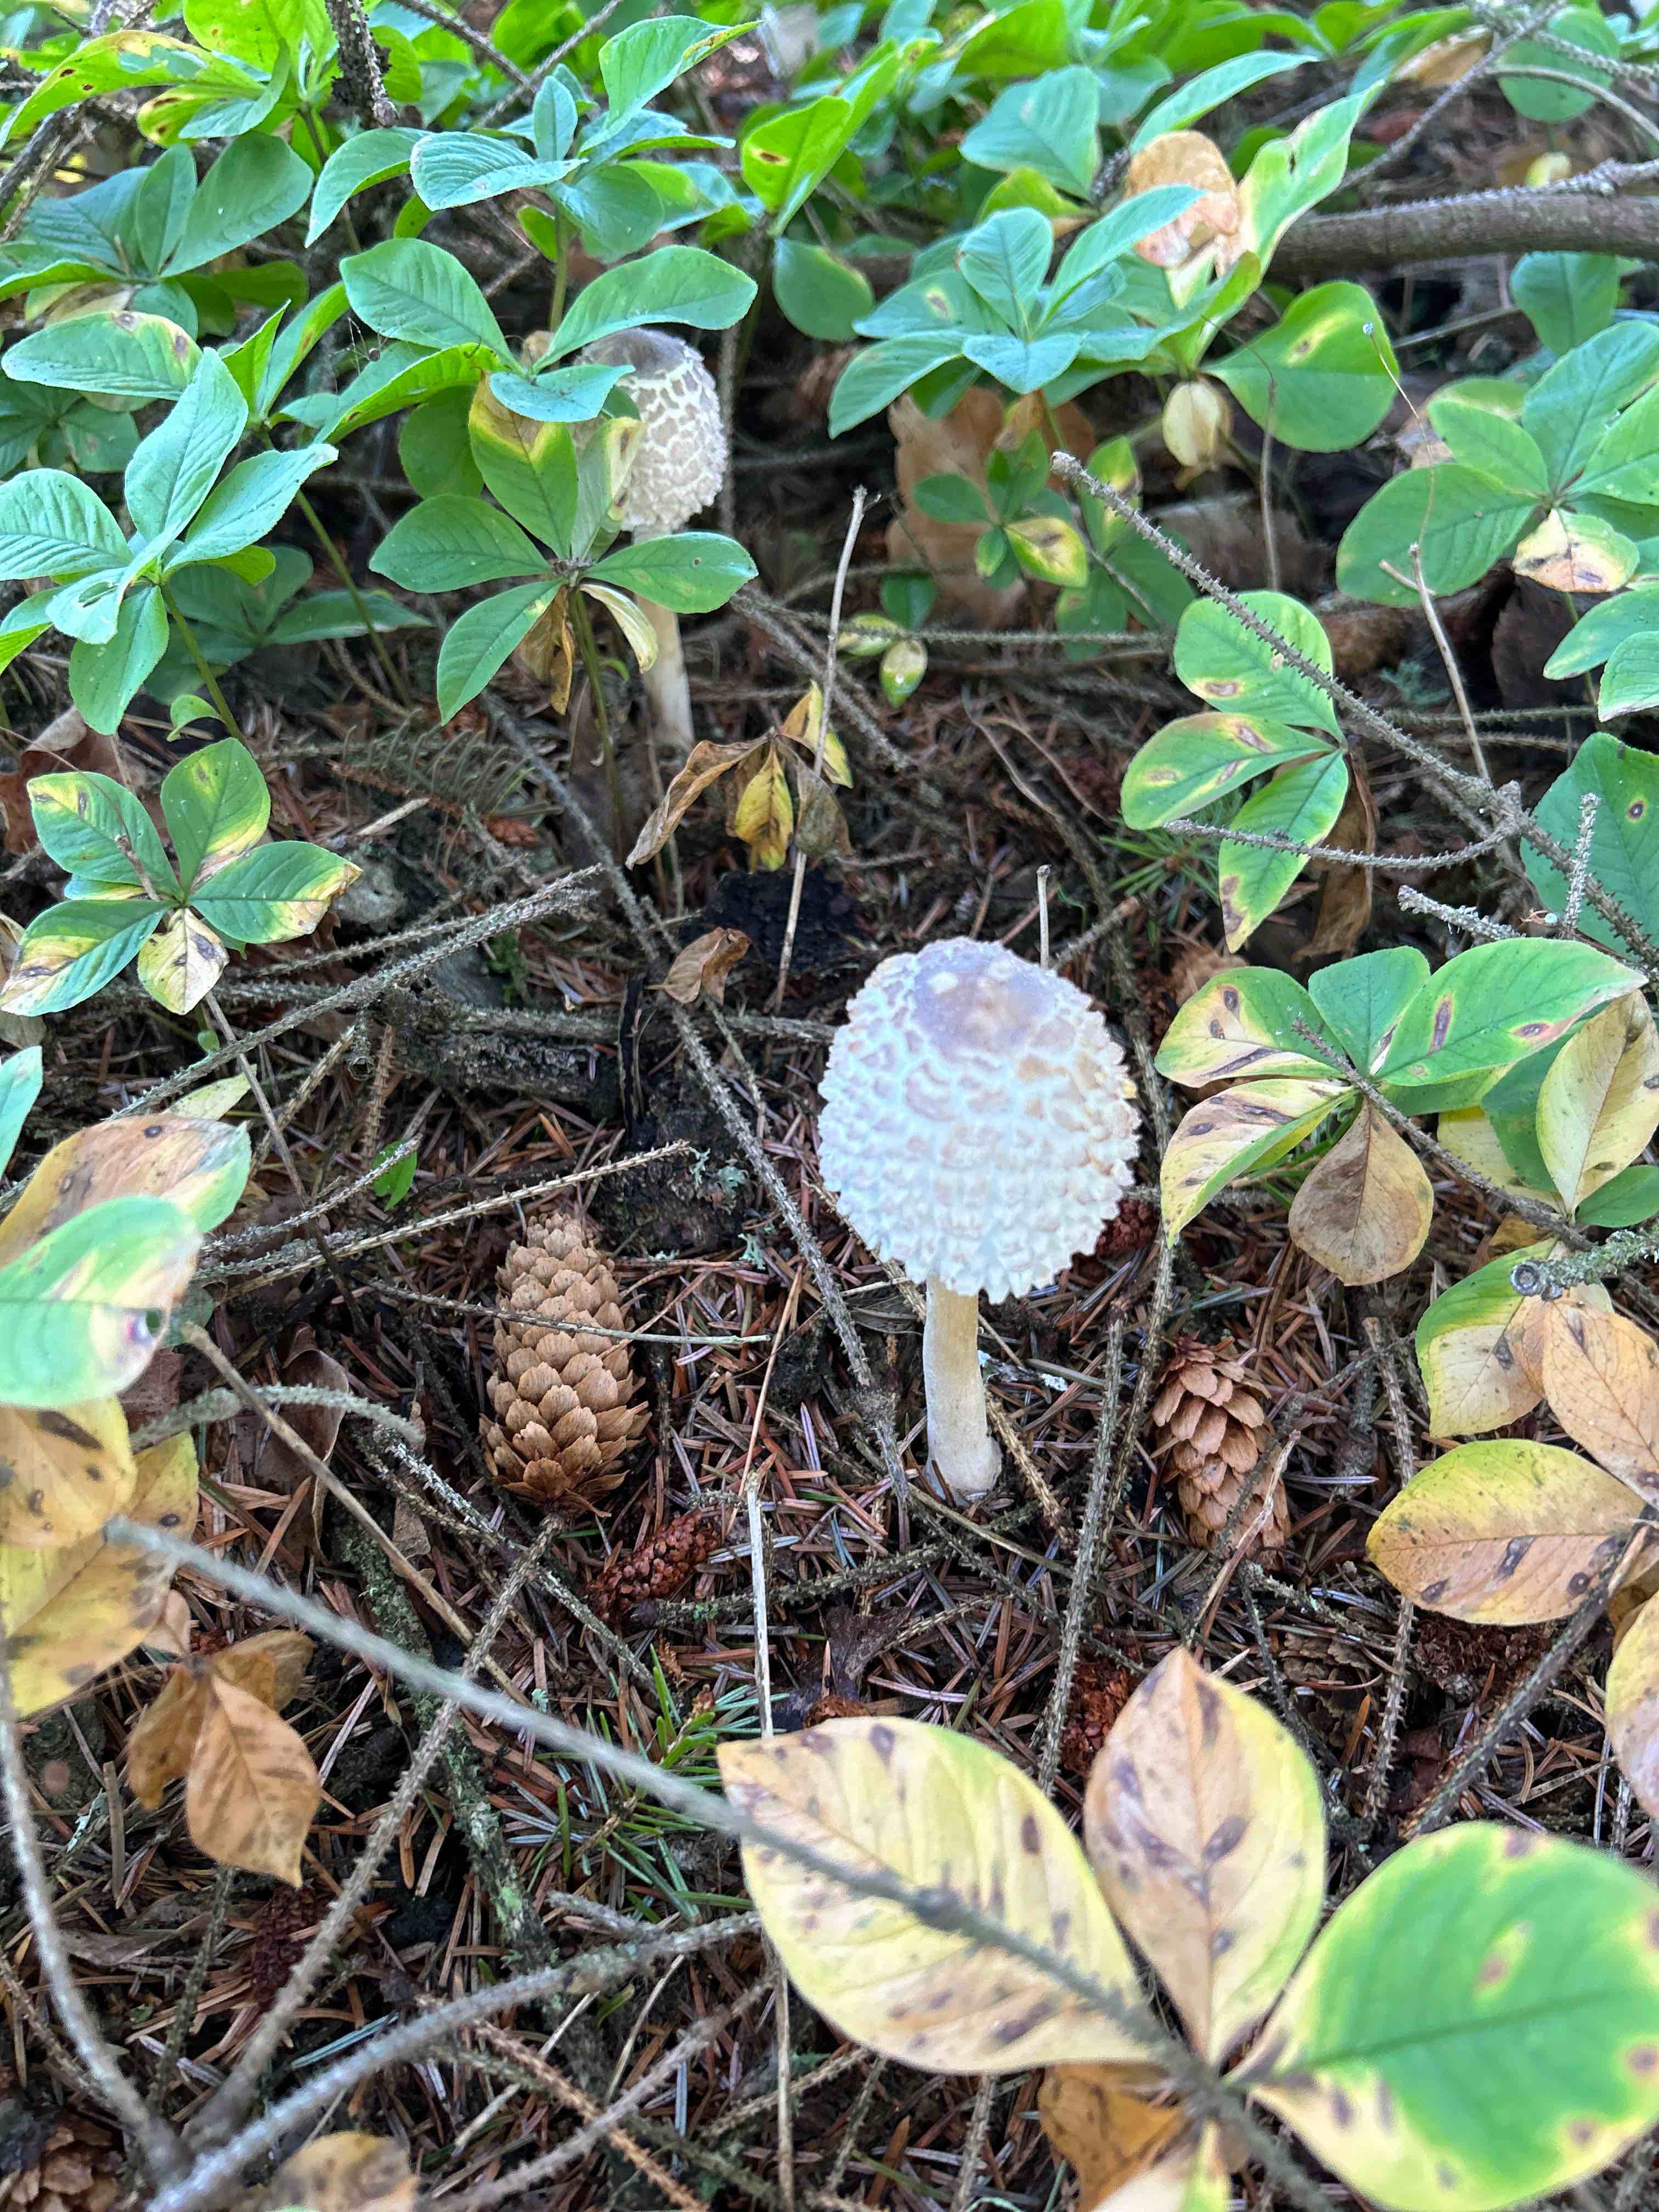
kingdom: Fungi
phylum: Basidiomycota
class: Agaricomycetes
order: Agaricales
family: Agaricaceae
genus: Leucoagaricus
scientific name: Leucoagaricus nympharum
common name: gran-silkehat
